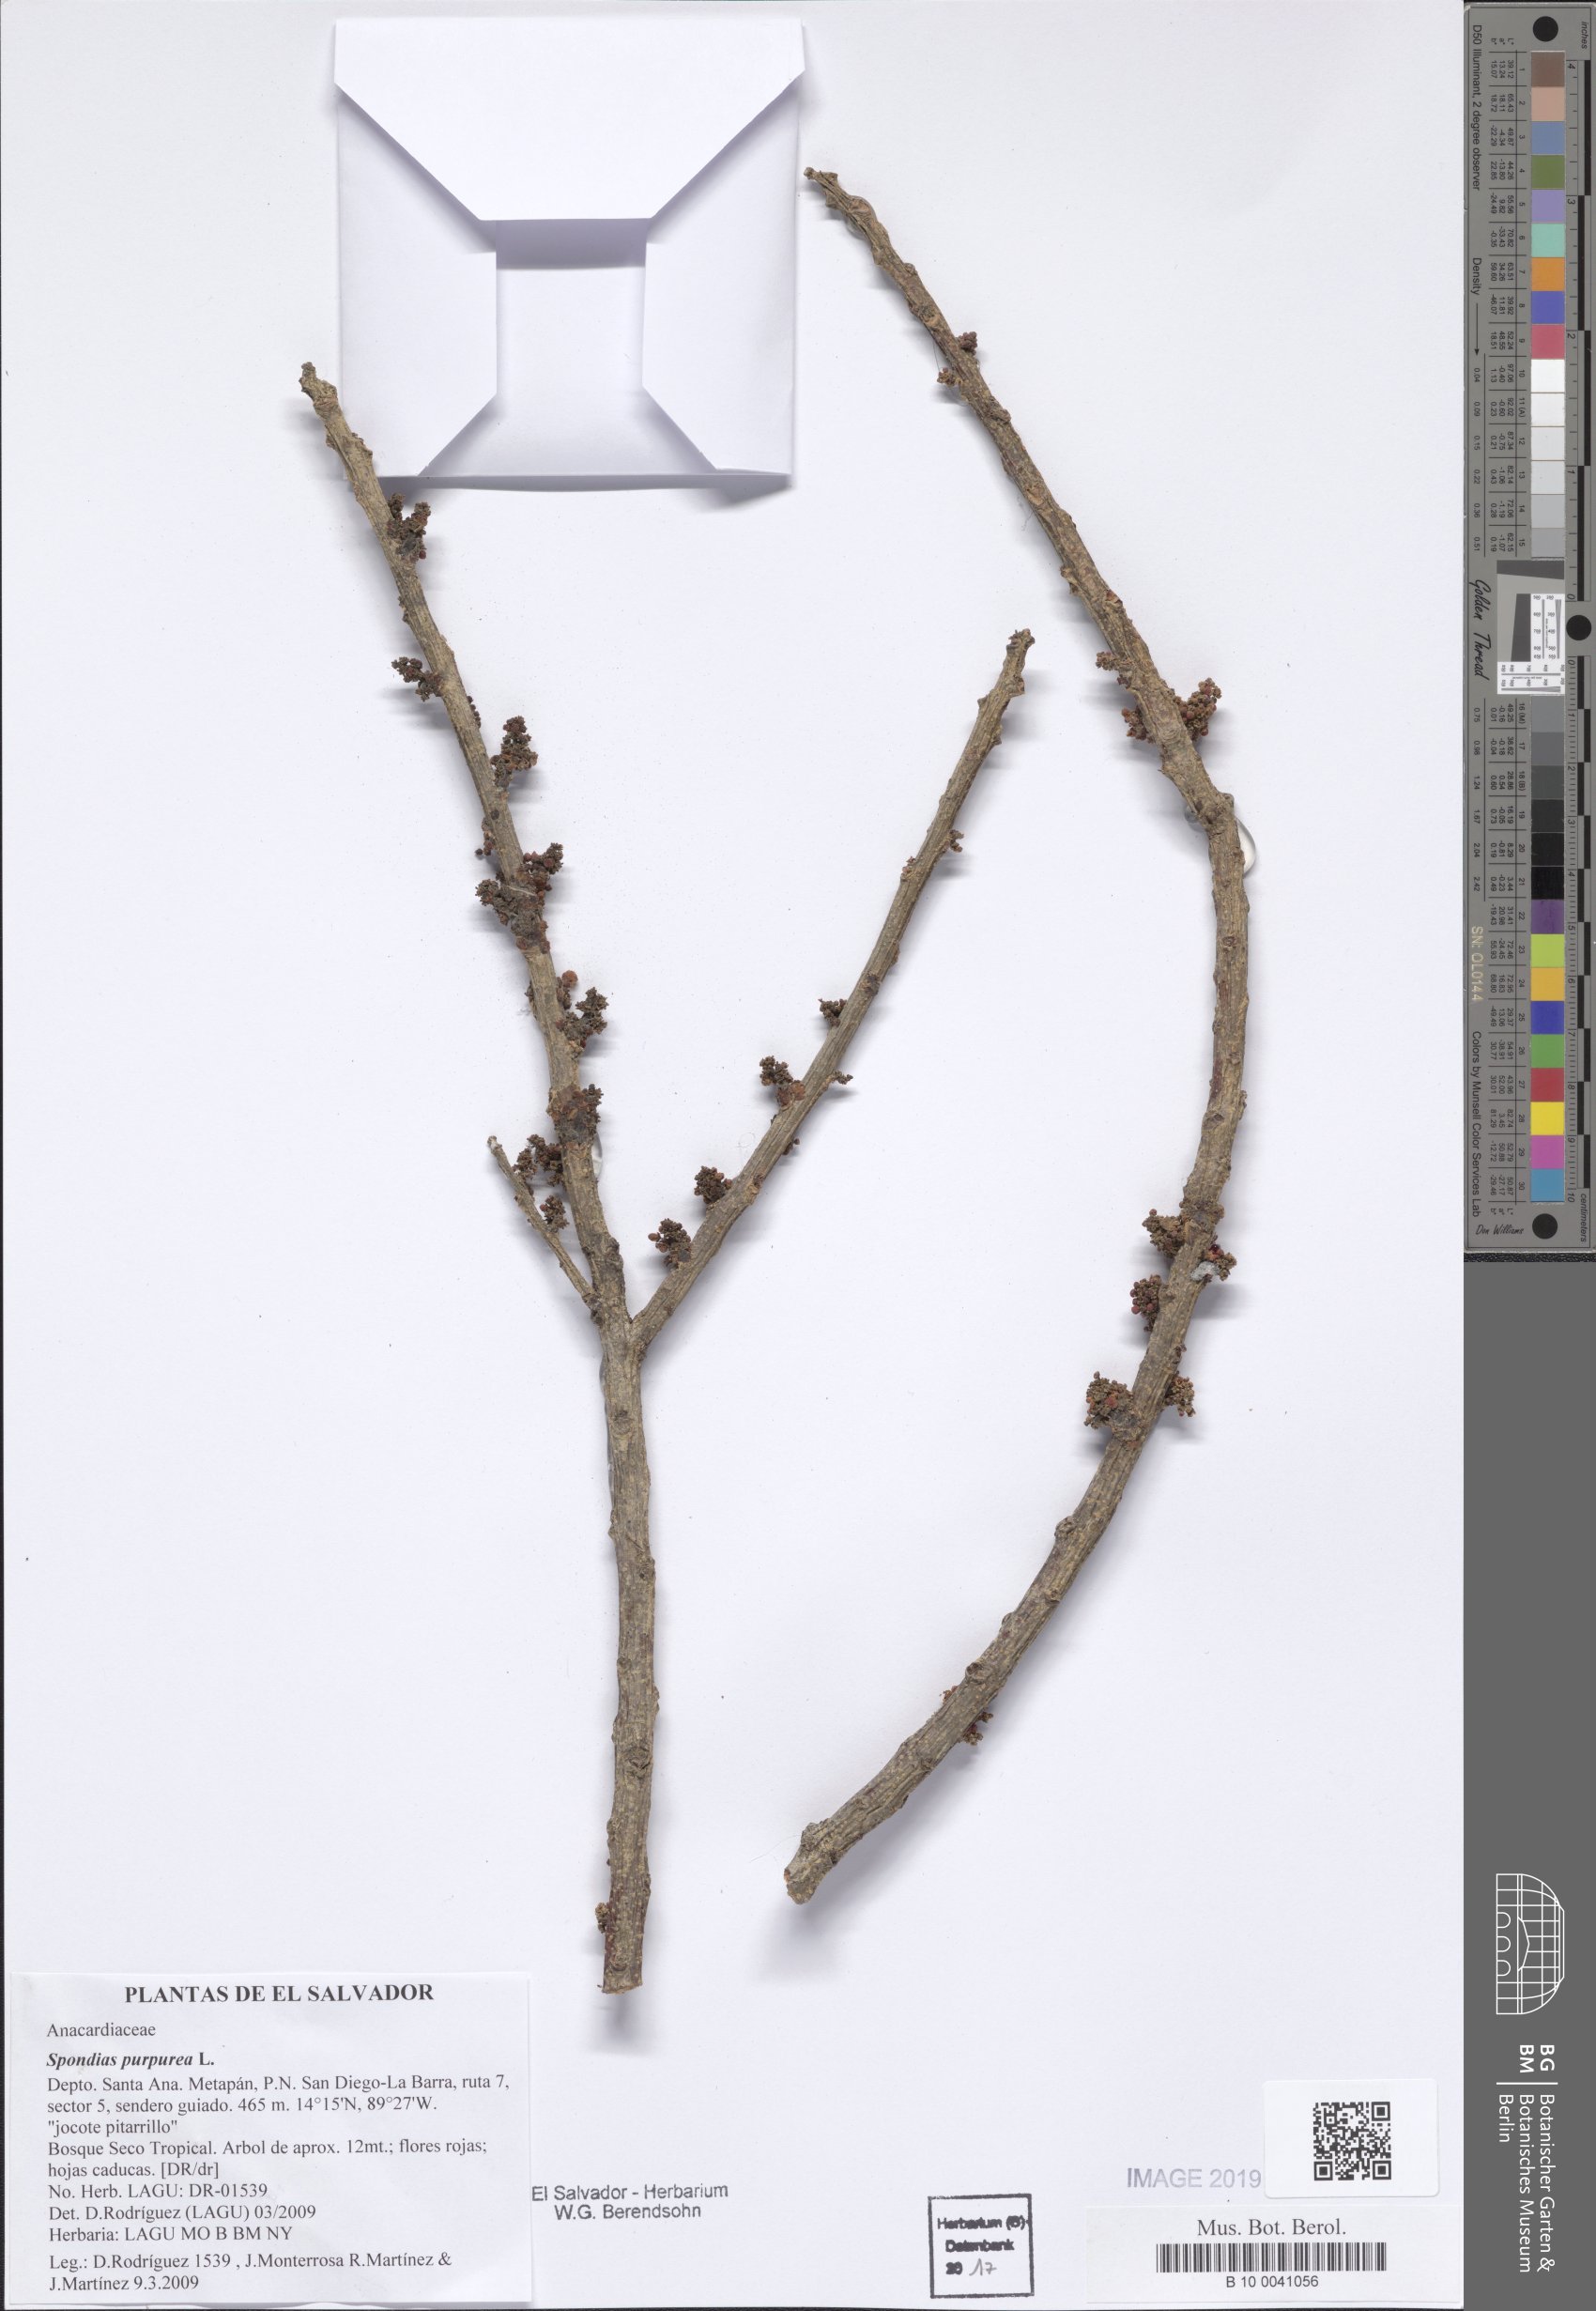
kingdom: Plantae
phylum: Tracheophyta
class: Magnoliopsida
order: Sapindales
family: Anacardiaceae
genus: Spondias
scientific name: Spondias purpurea
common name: Purple mombin
